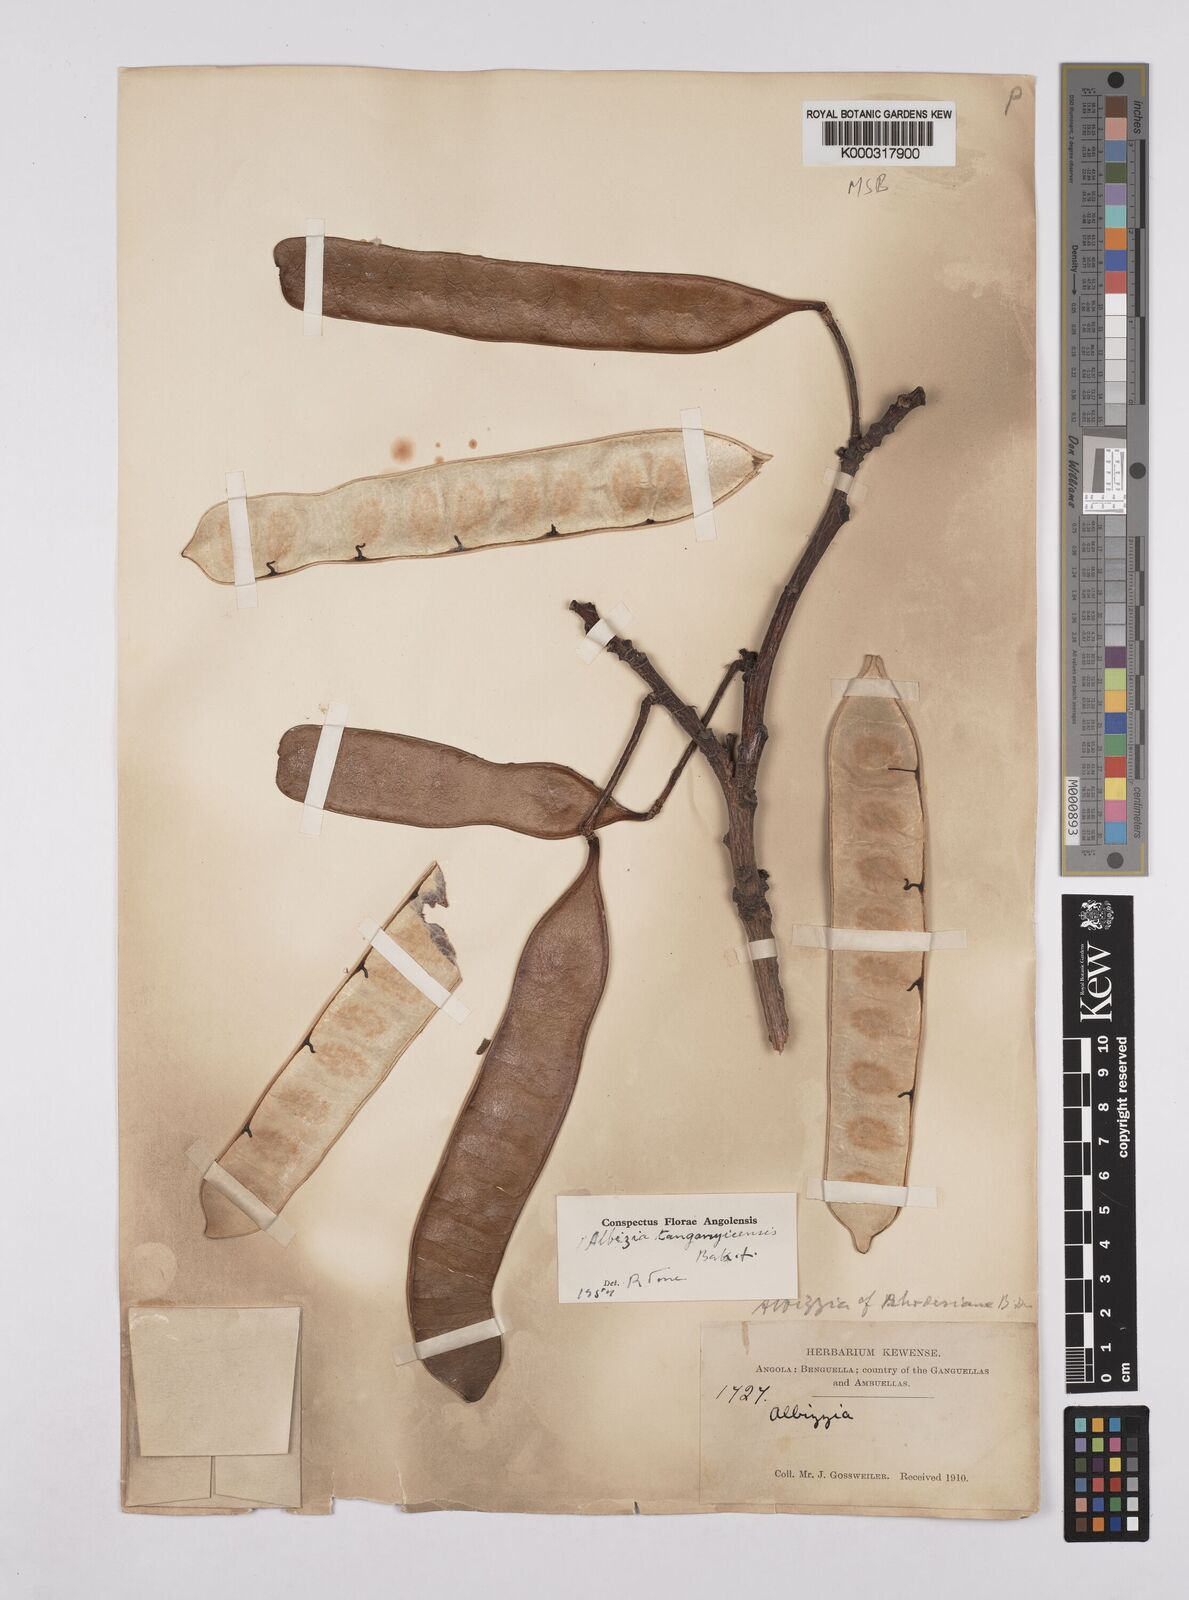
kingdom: Plantae
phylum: Tracheophyta
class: Magnoliopsida
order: Fabales
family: Fabaceae
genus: Albizia
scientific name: Albizia tanganyicensis
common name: Paperbark false thorn
